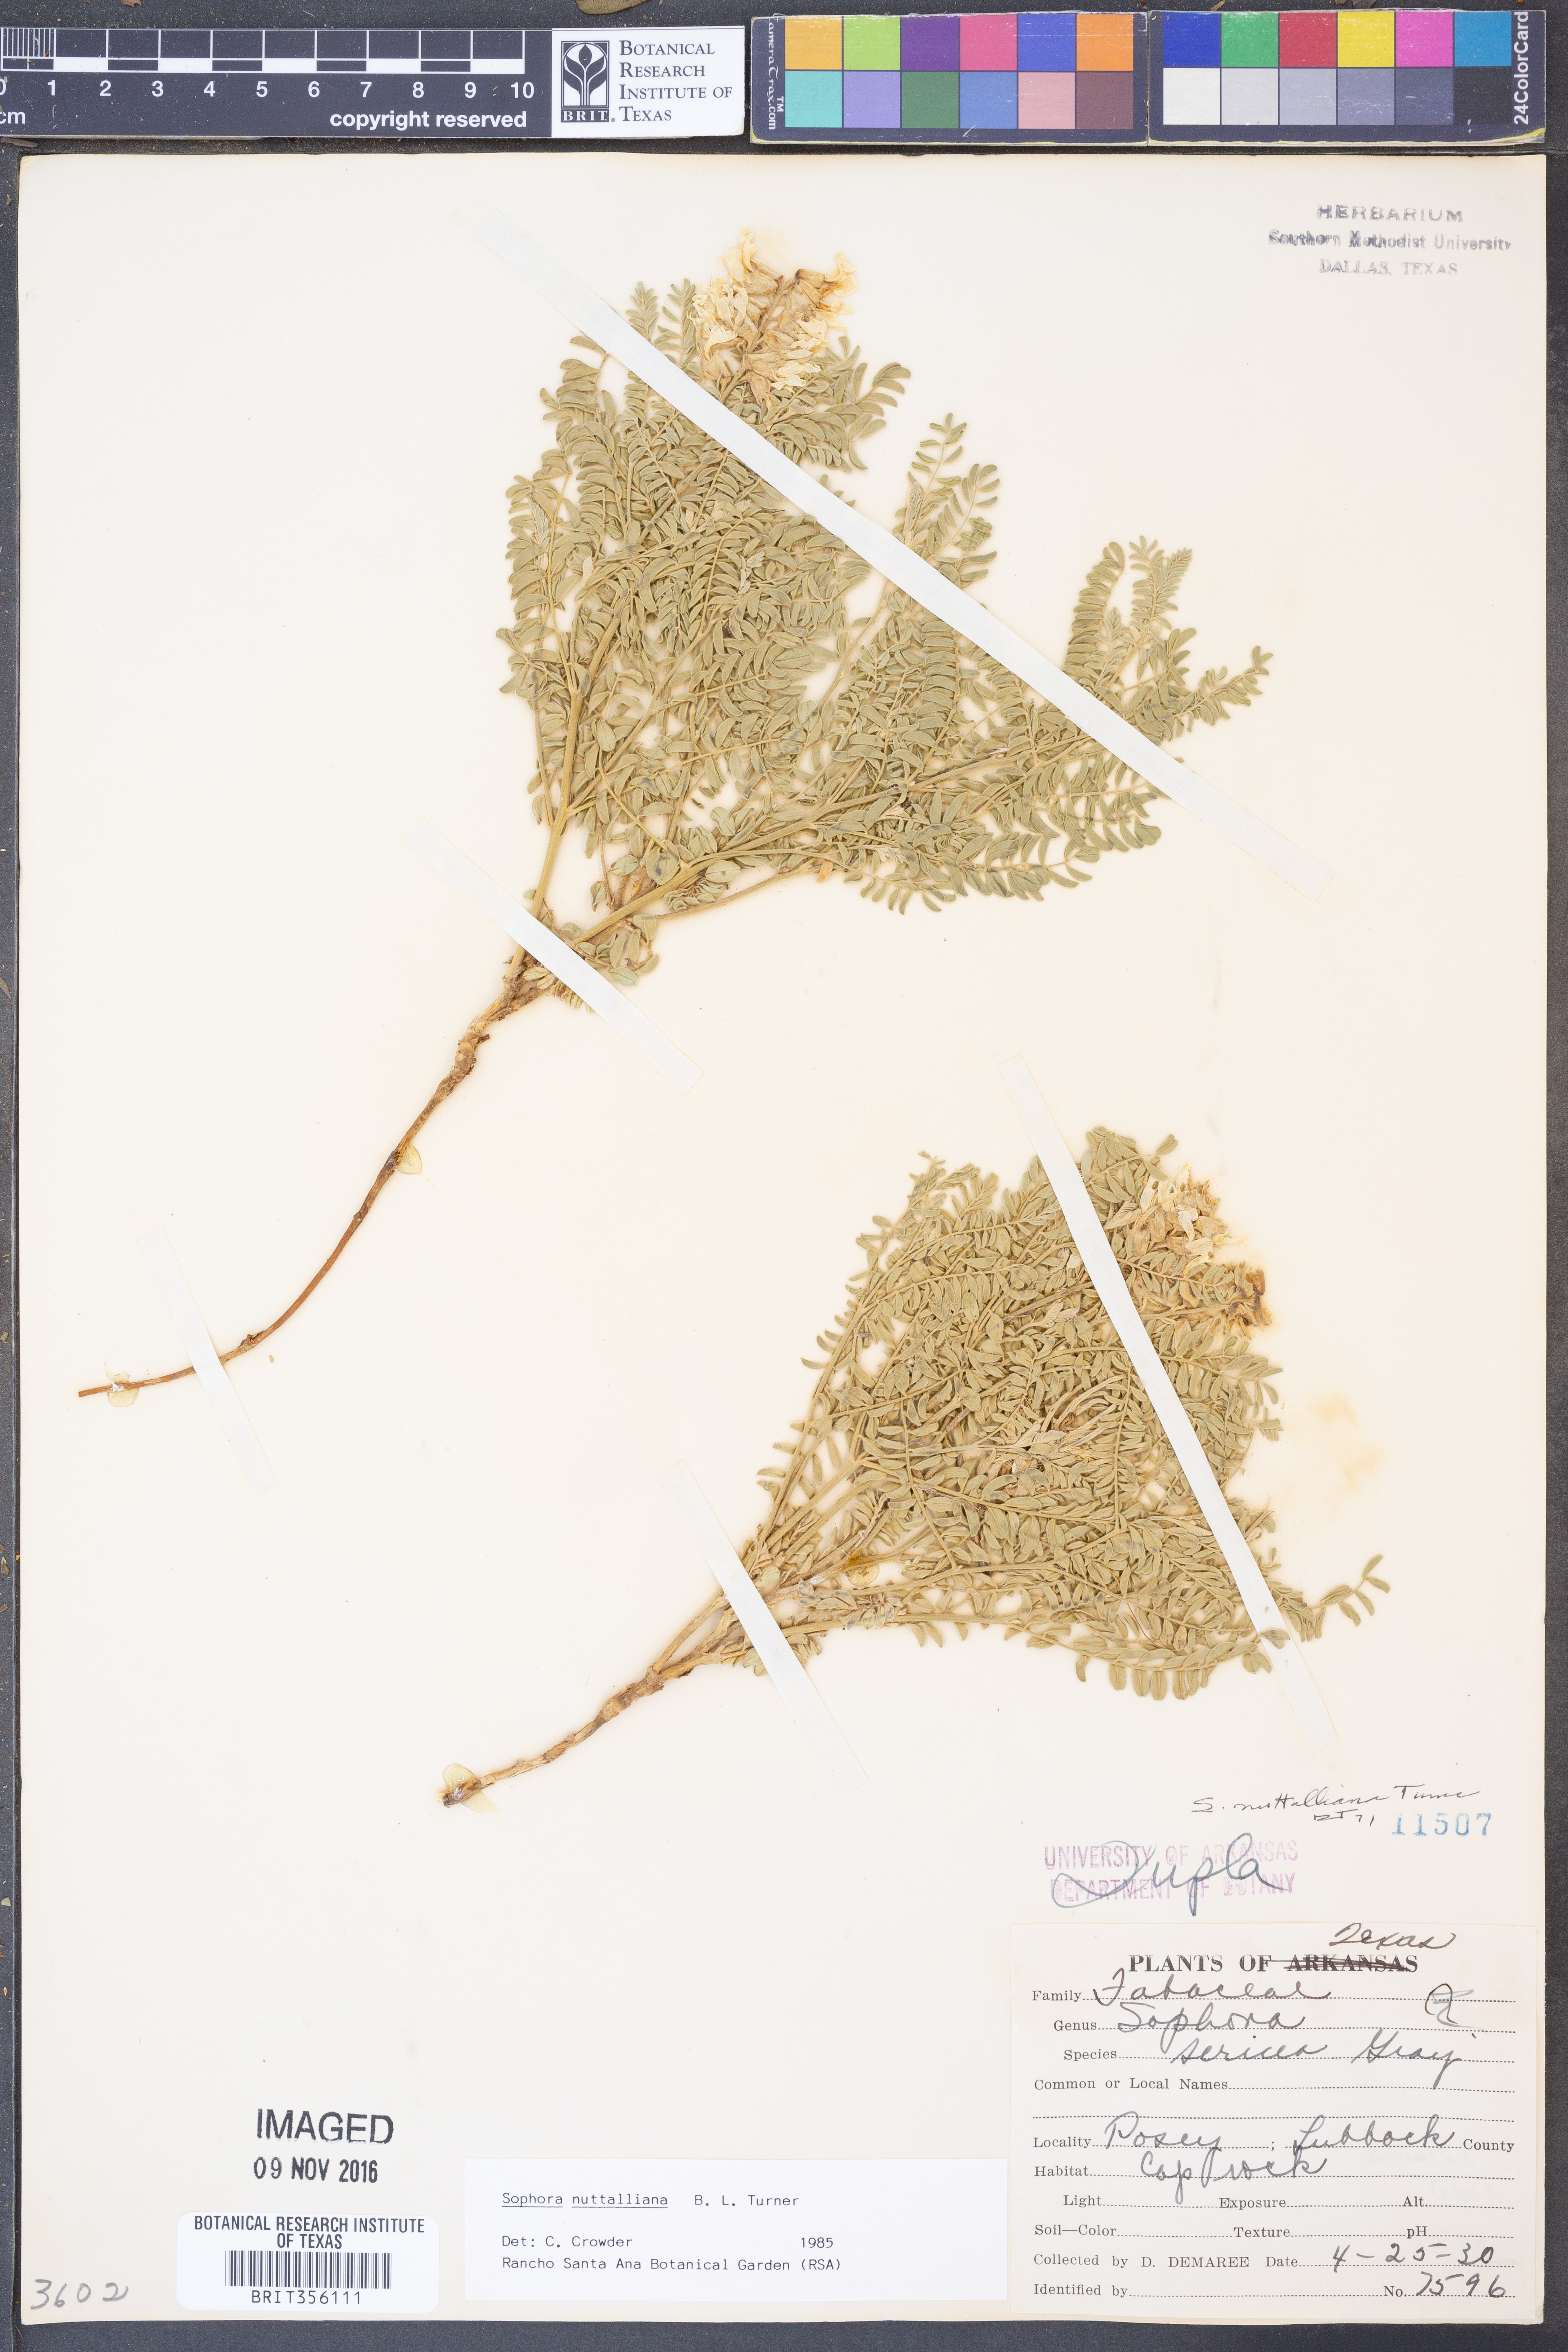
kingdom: Plantae
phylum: Tracheophyta
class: Magnoliopsida
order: Fabales
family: Fabaceae
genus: Sophora
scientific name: Sophora nuttalliana
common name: Silky sophora
